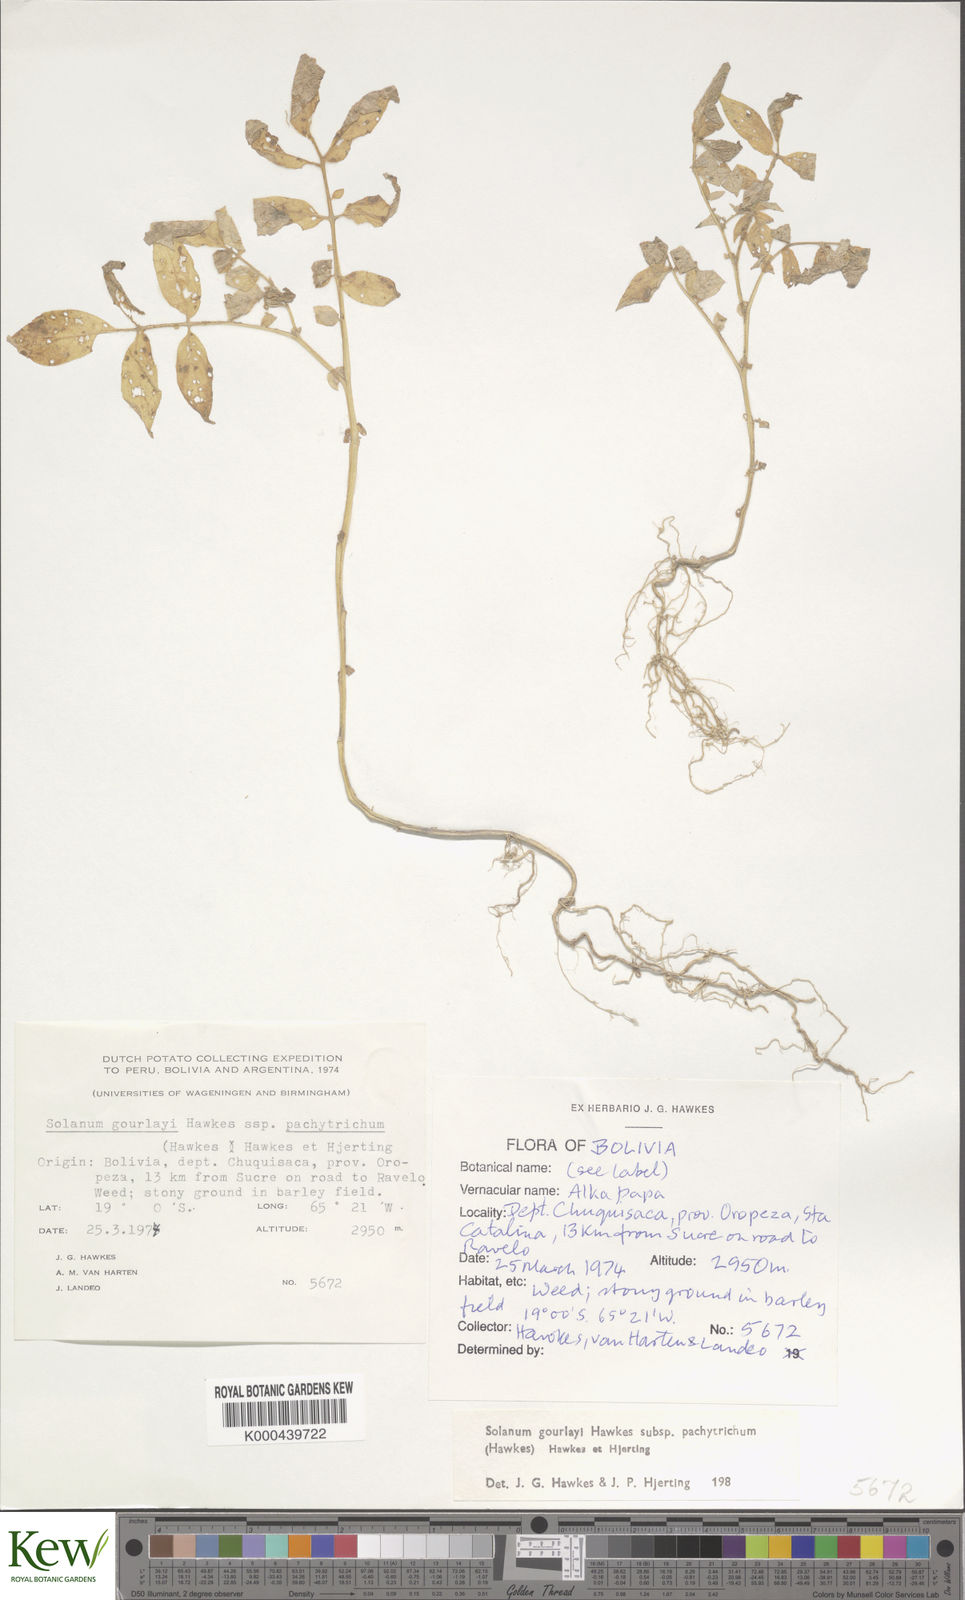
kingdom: Plantae
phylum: Tracheophyta
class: Magnoliopsida
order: Solanales
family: Solanaceae
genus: Solanum
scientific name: Solanum brevicaule
